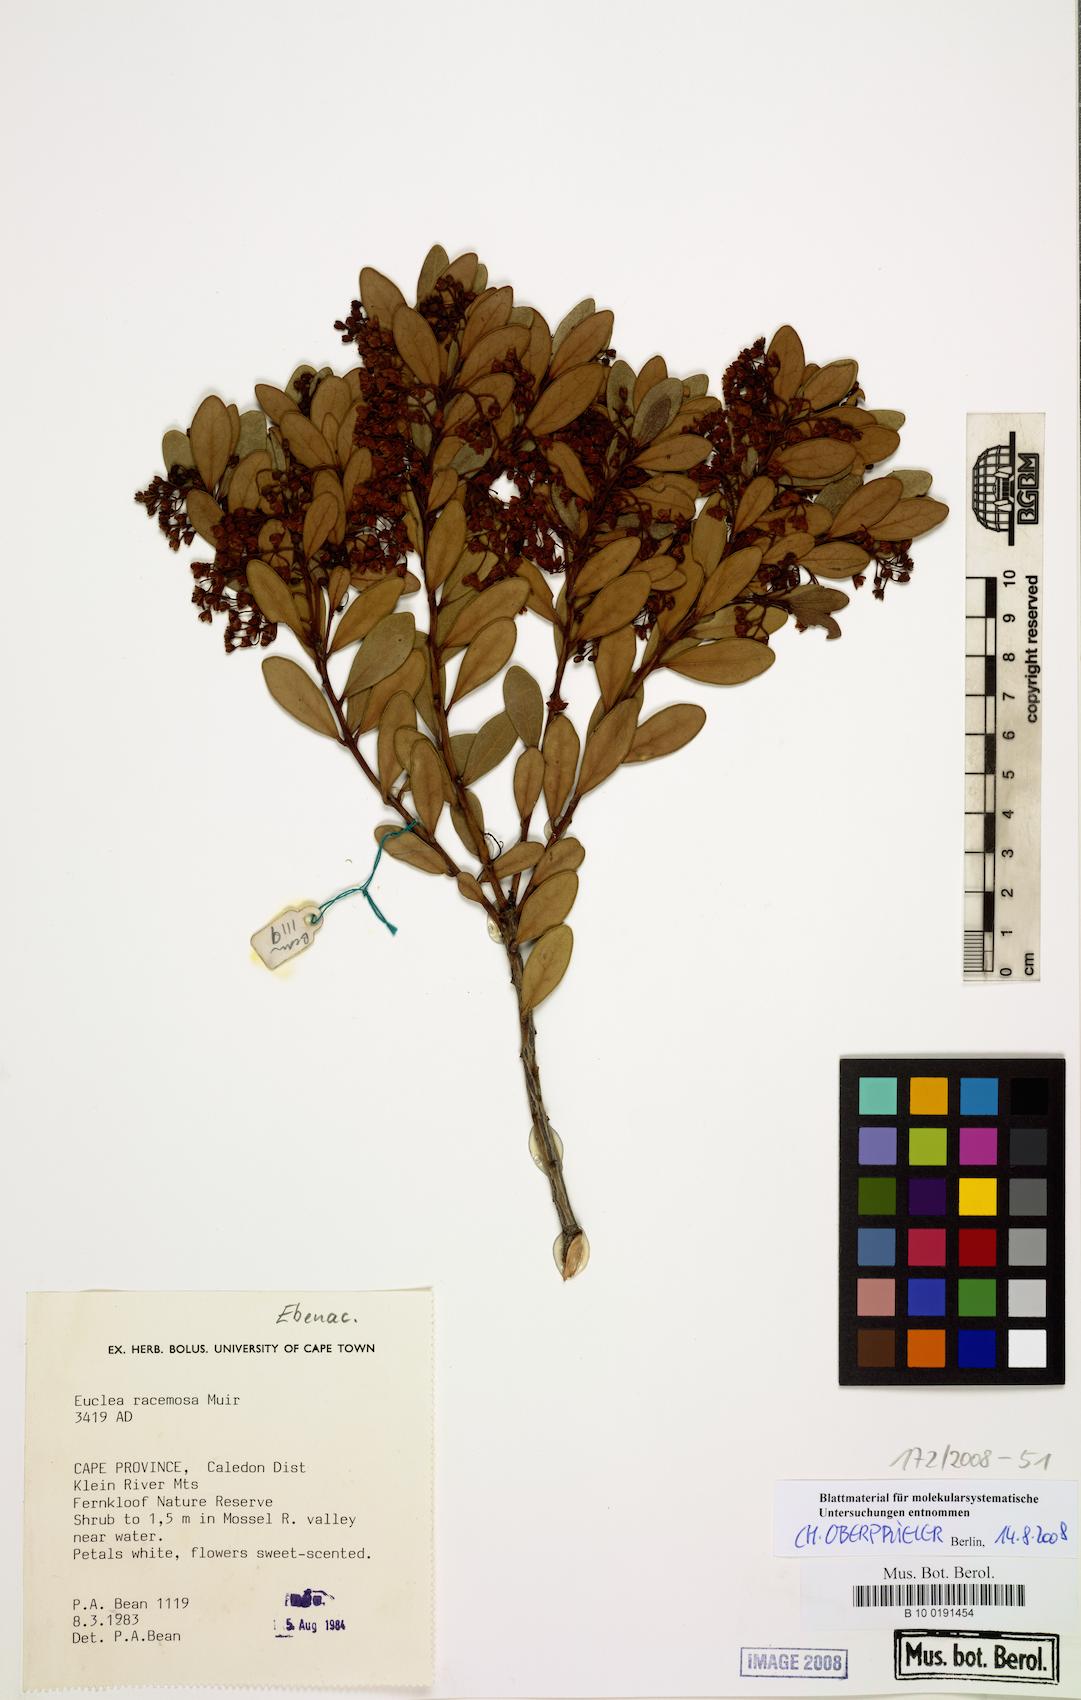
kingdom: Plantae
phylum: Tracheophyta
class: Magnoliopsida
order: Ericales
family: Ebenaceae
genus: Euclea
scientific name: Euclea racemosa
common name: Dune guarri
